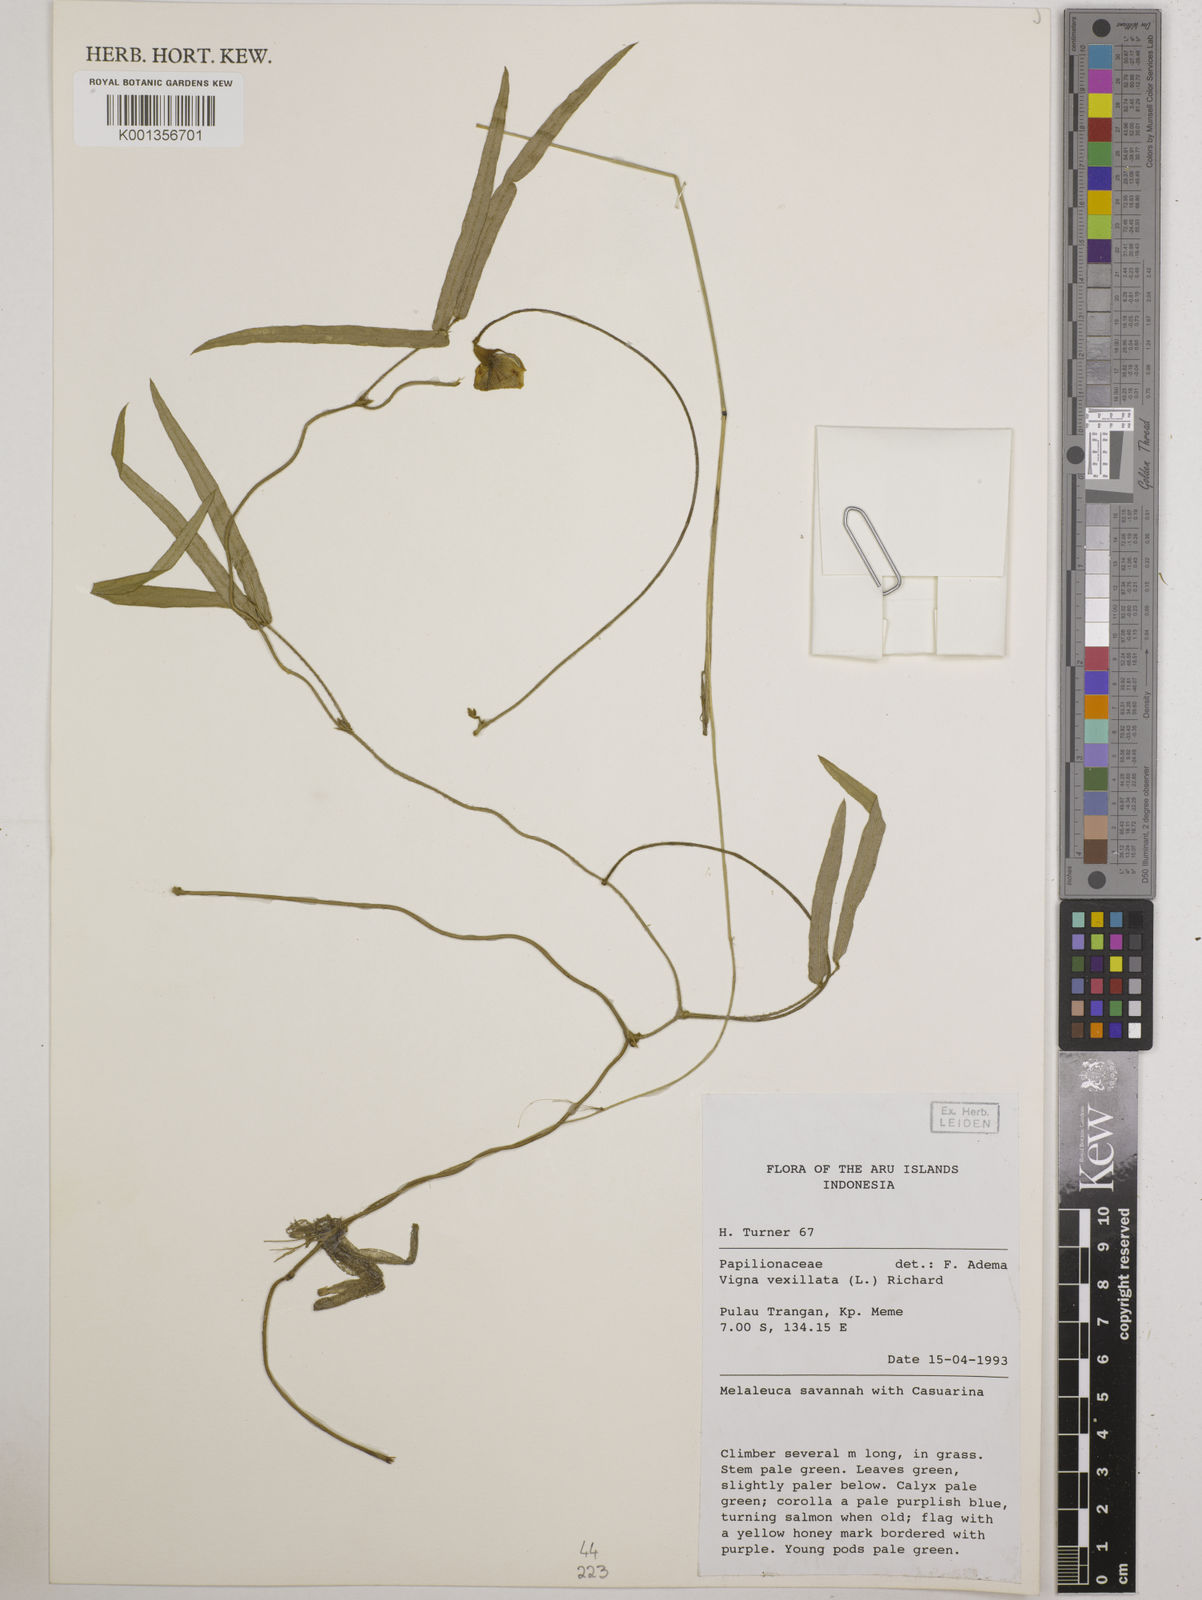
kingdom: Plantae
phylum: Tracheophyta
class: Magnoliopsida
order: Fabales
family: Fabaceae
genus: Vigna
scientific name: Vigna vexillata
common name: Zombi pea
